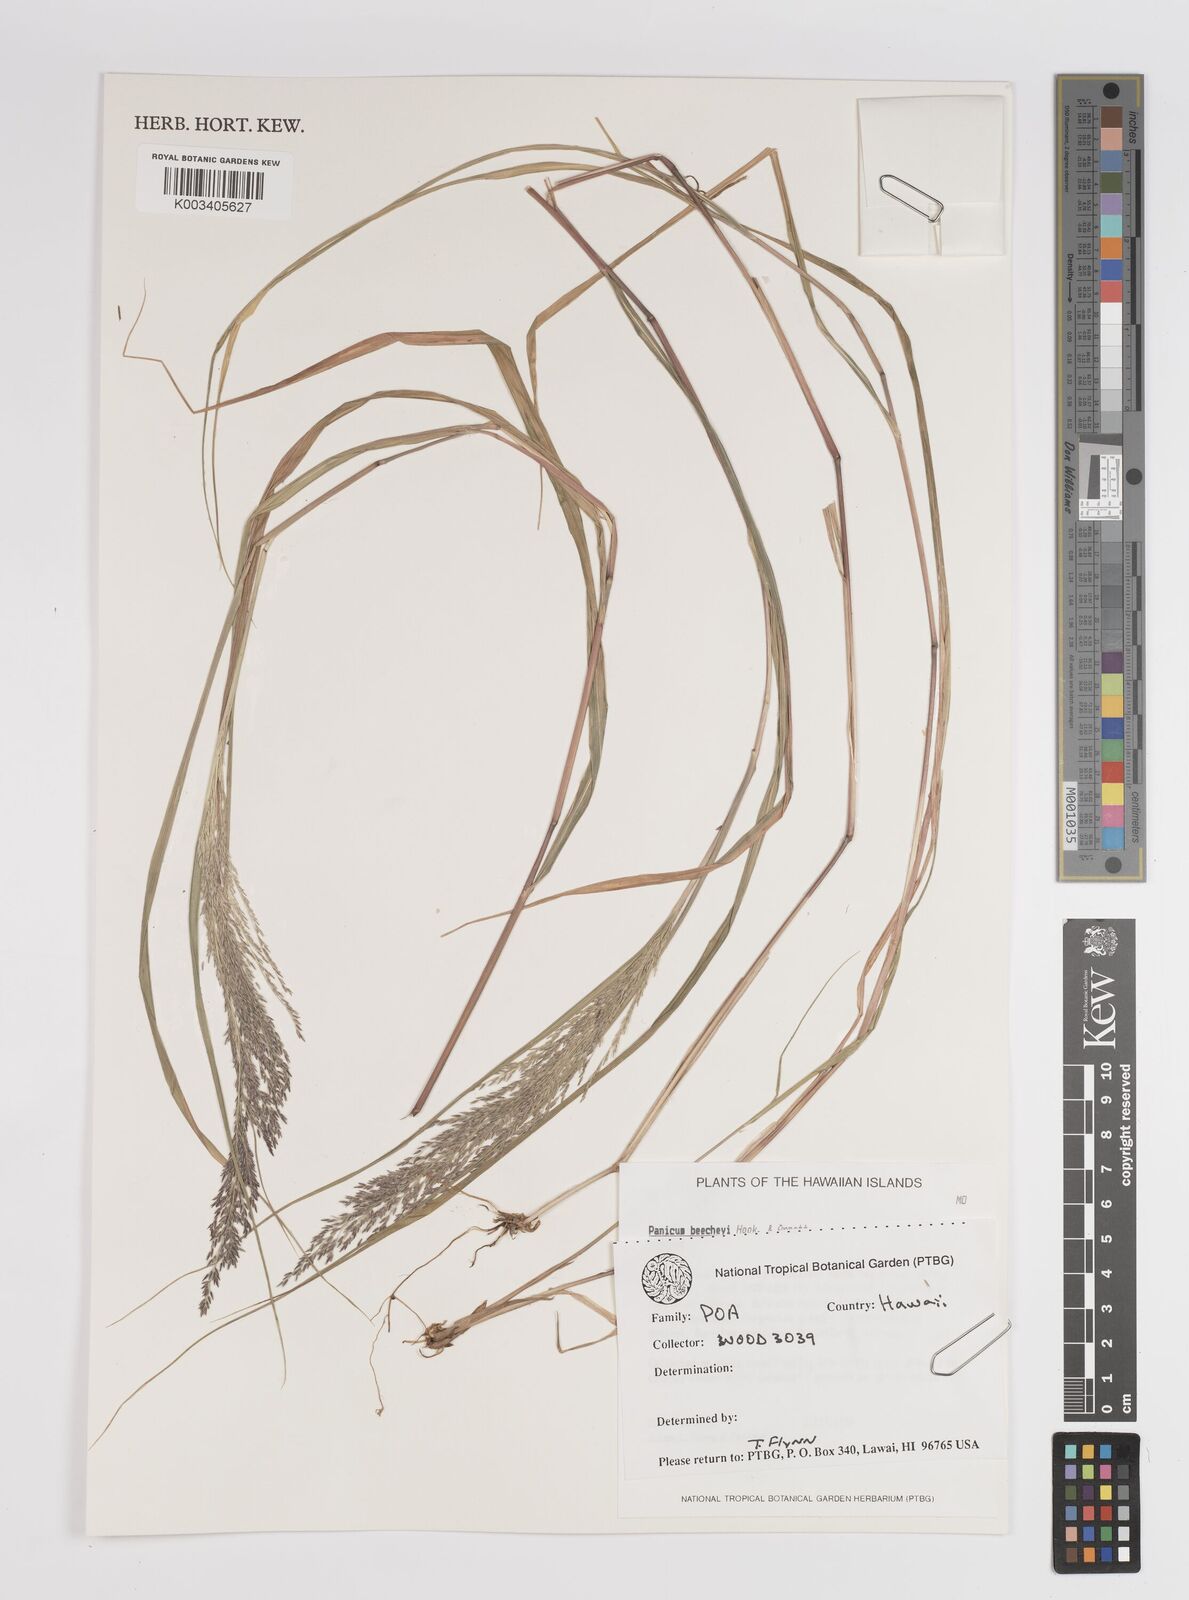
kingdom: Plantae
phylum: Tracheophyta
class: Liliopsida
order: Poales
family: Poaceae
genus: Panicum
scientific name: Panicum beecheyi
